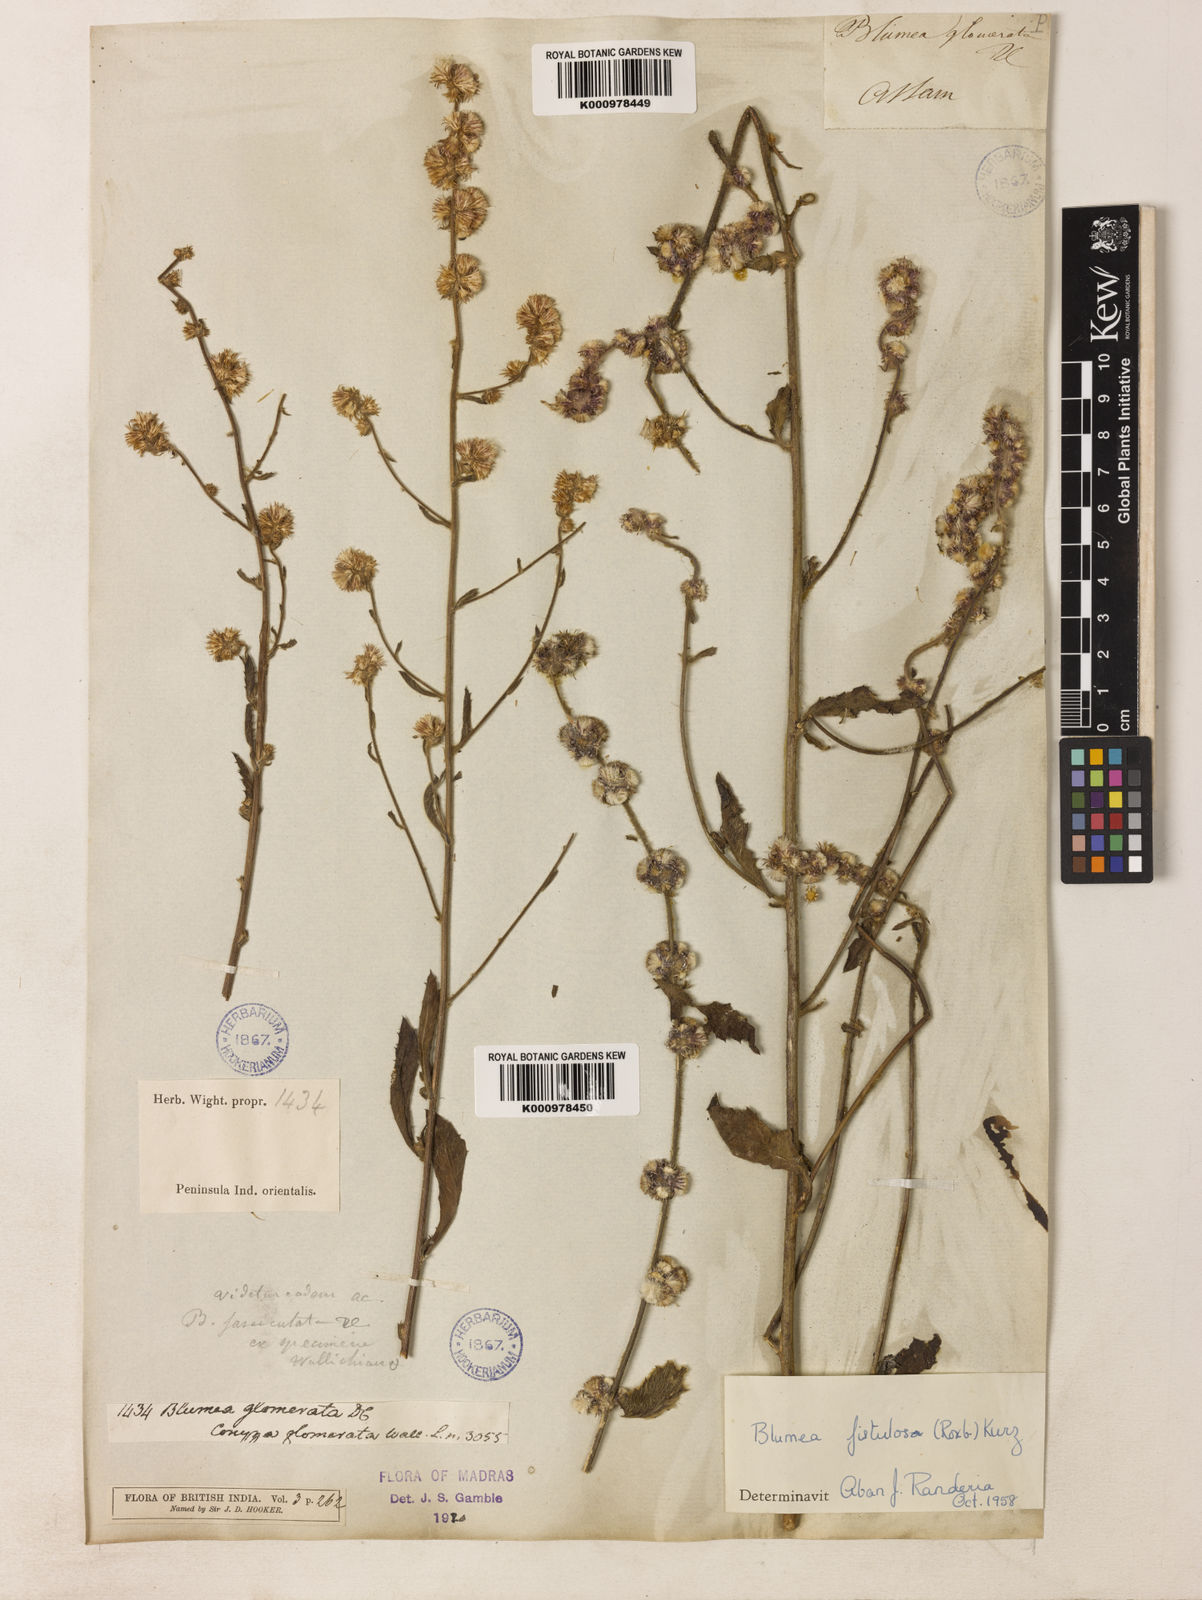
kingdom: Plantae
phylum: Tracheophyta
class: Magnoliopsida
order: Asterales
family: Asteraceae
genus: Blumea
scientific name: Blumea fistulosa
